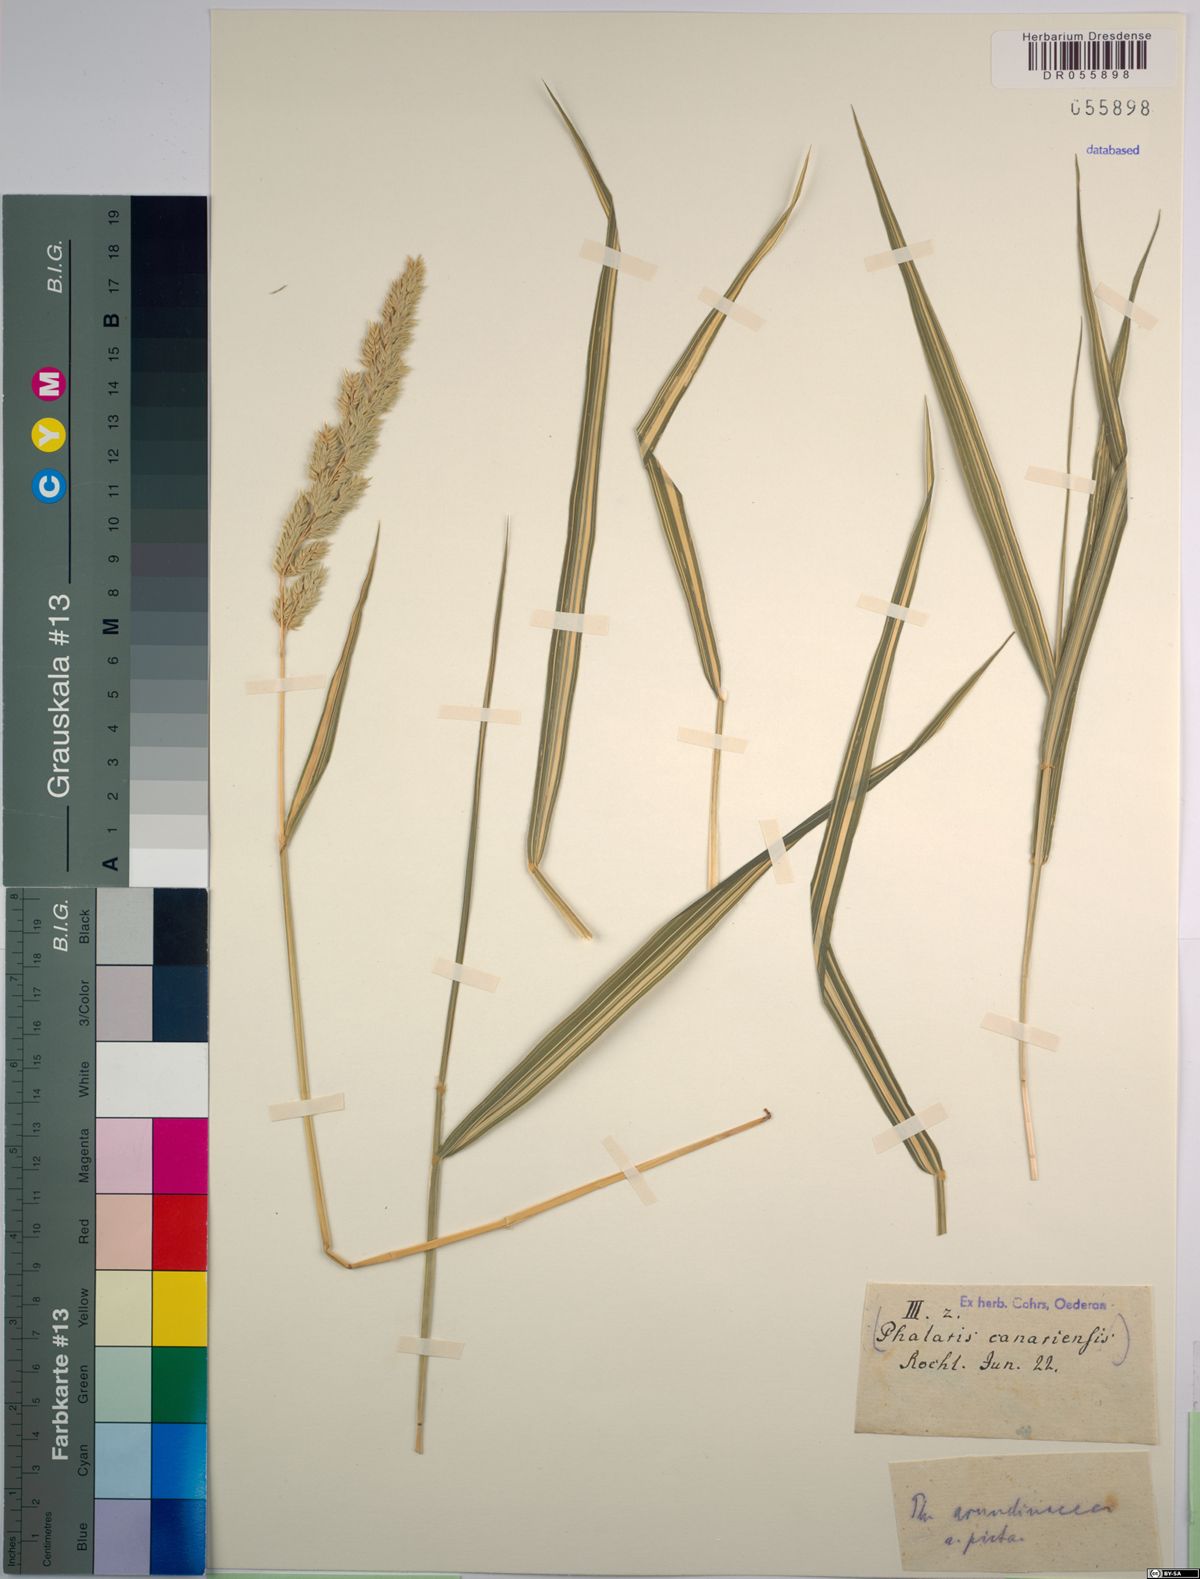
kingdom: Plantae
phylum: Tracheophyta
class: Liliopsida
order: Poales
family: Poaceae
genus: Phalaris
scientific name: Phalaris arundinacea
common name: Reed canary-grass
